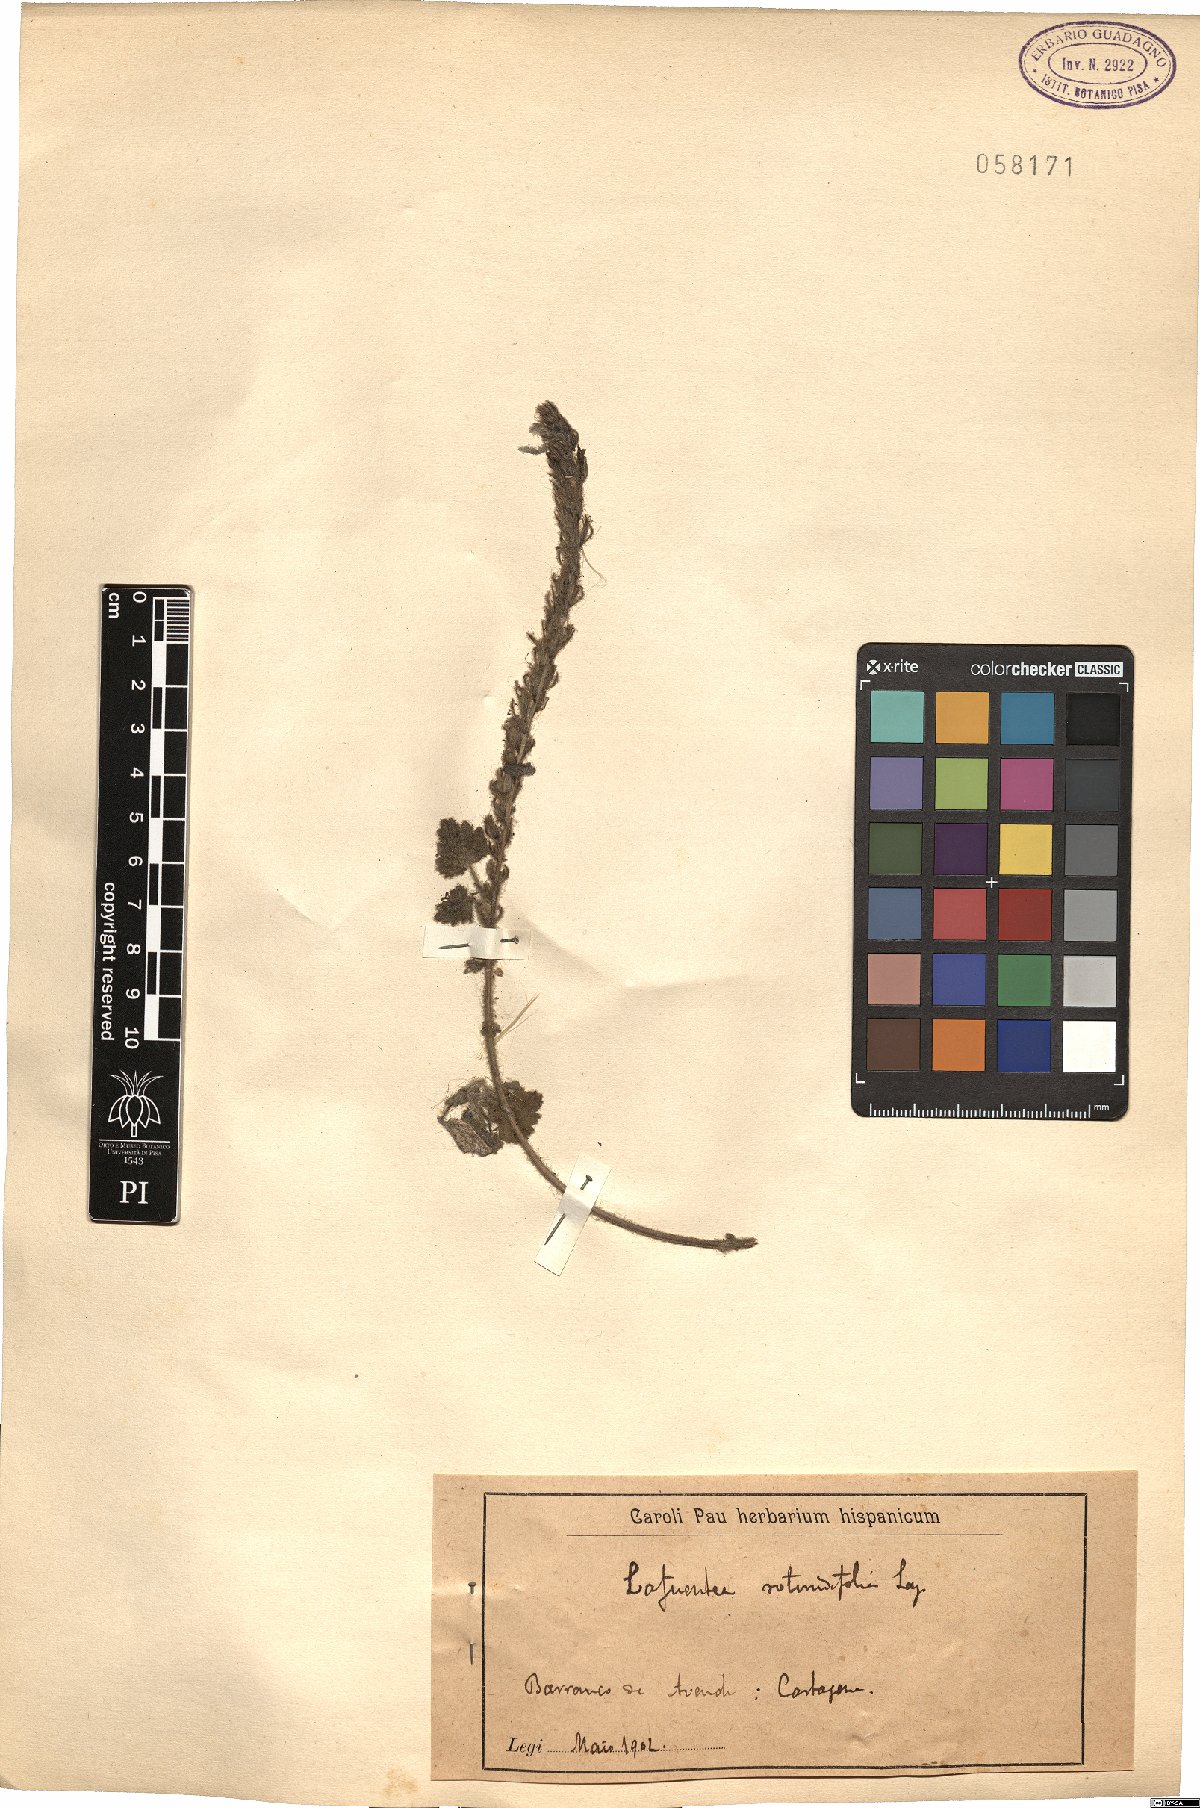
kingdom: Plantae
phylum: Tracheophyta
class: Magnoliopsida
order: Lamiales
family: Plantaginaceae
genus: Lafuentea
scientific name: Lafuentea rotundifolia
